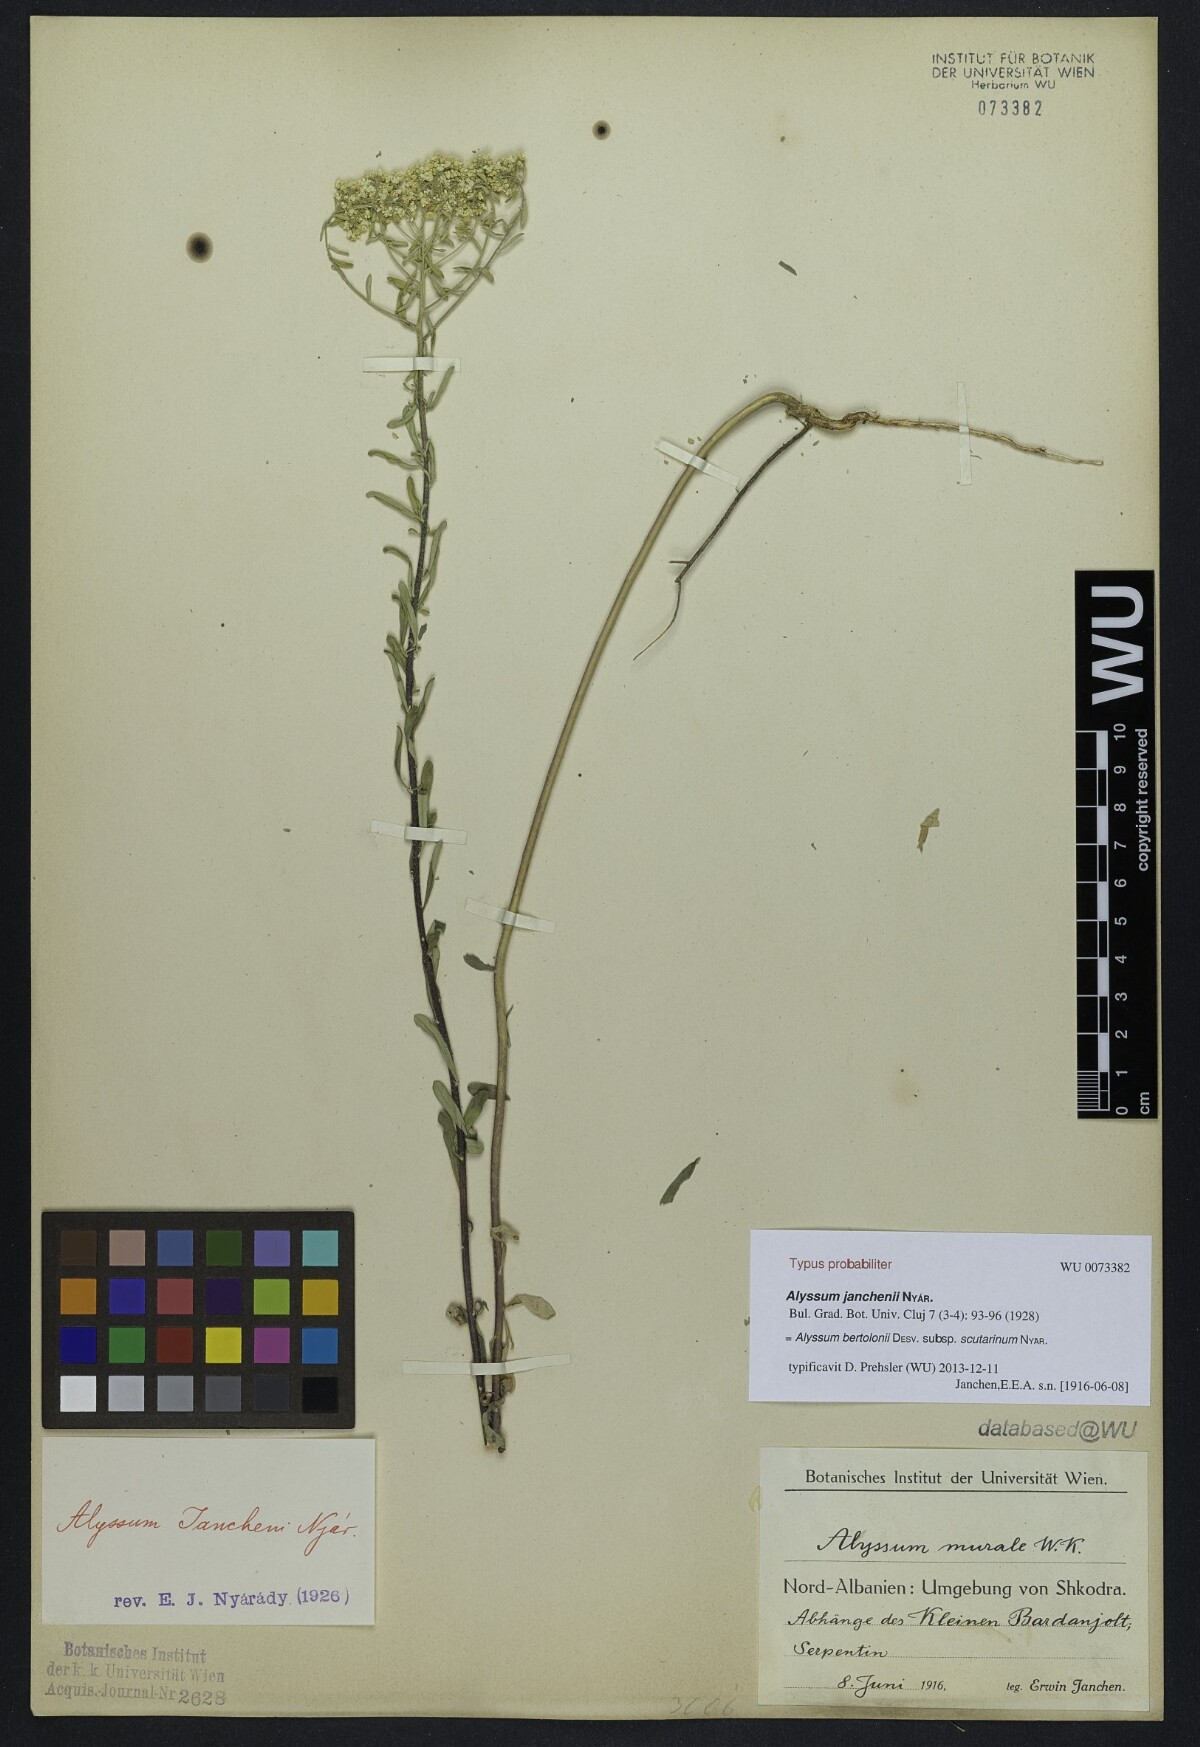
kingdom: Plantae
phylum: Tracheophyta
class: Magnoliopsida
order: Brassicales
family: Brassicaceae
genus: Odontarrhena
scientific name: Odontarrhena chalcidica
